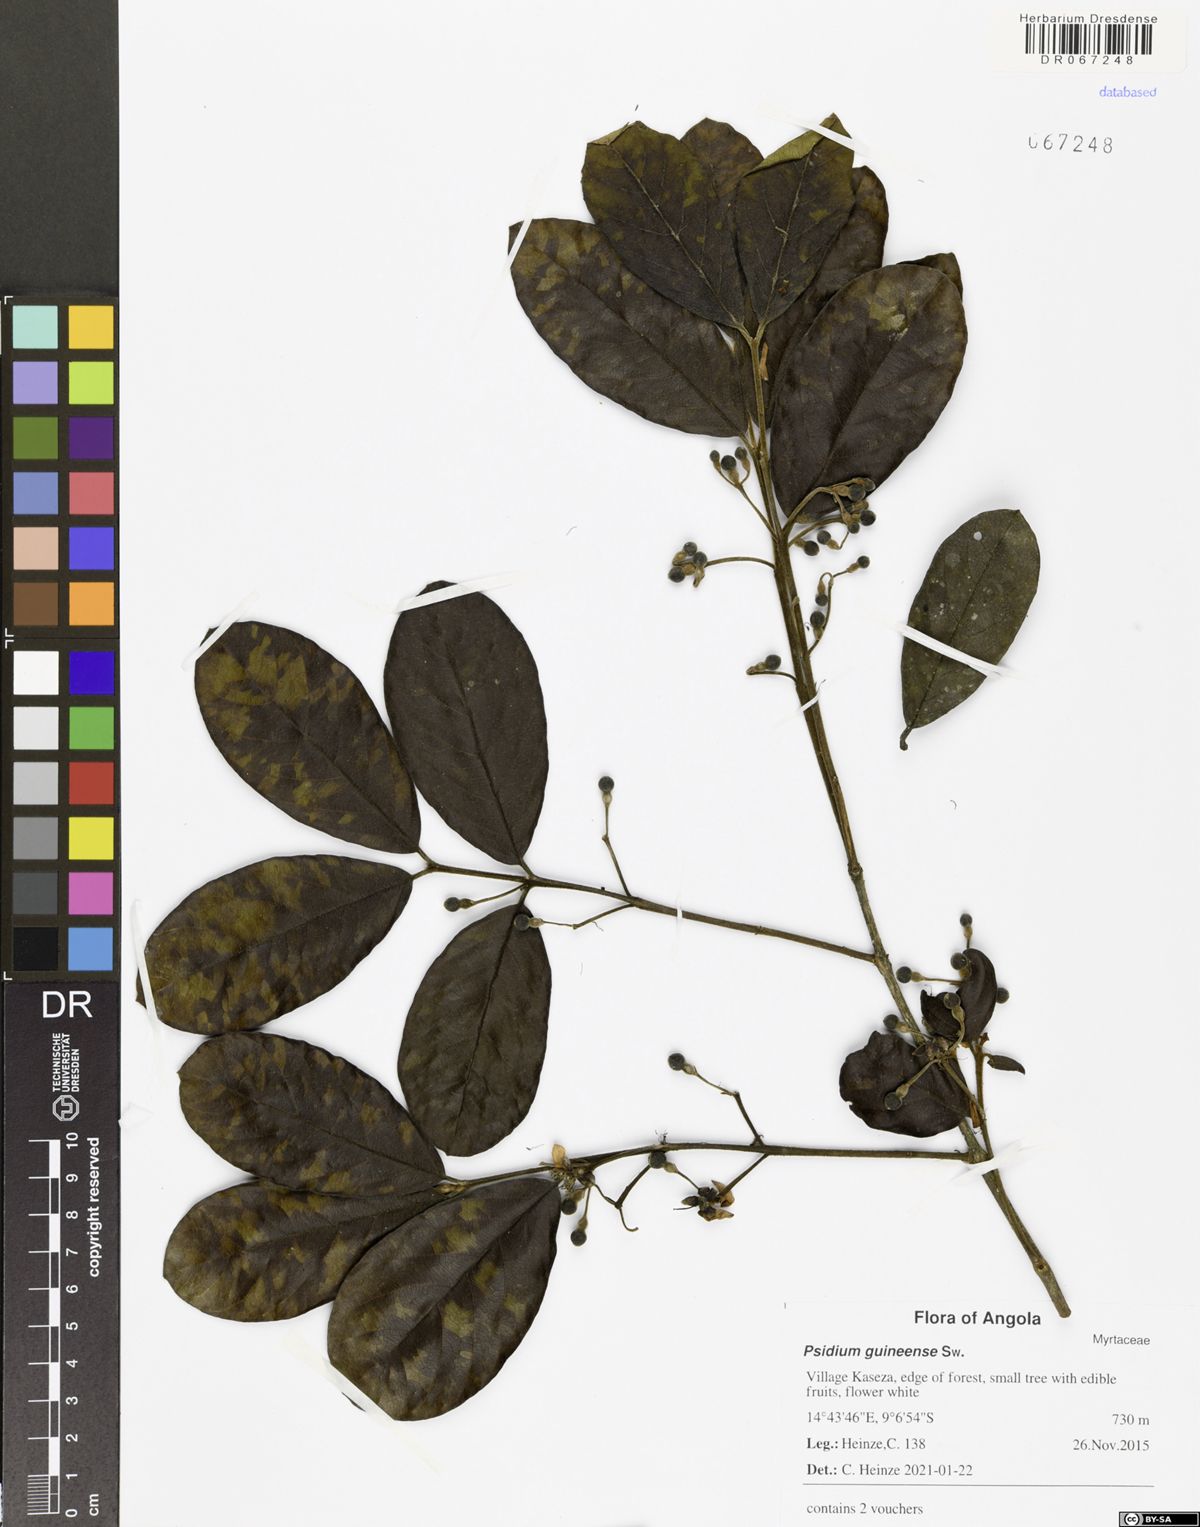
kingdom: Plantae
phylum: Tracheophyta
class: Magnoliopsida
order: Myrtales
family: Myrtaceae
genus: Psidium
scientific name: Psidium guineense
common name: Brazilian guava
